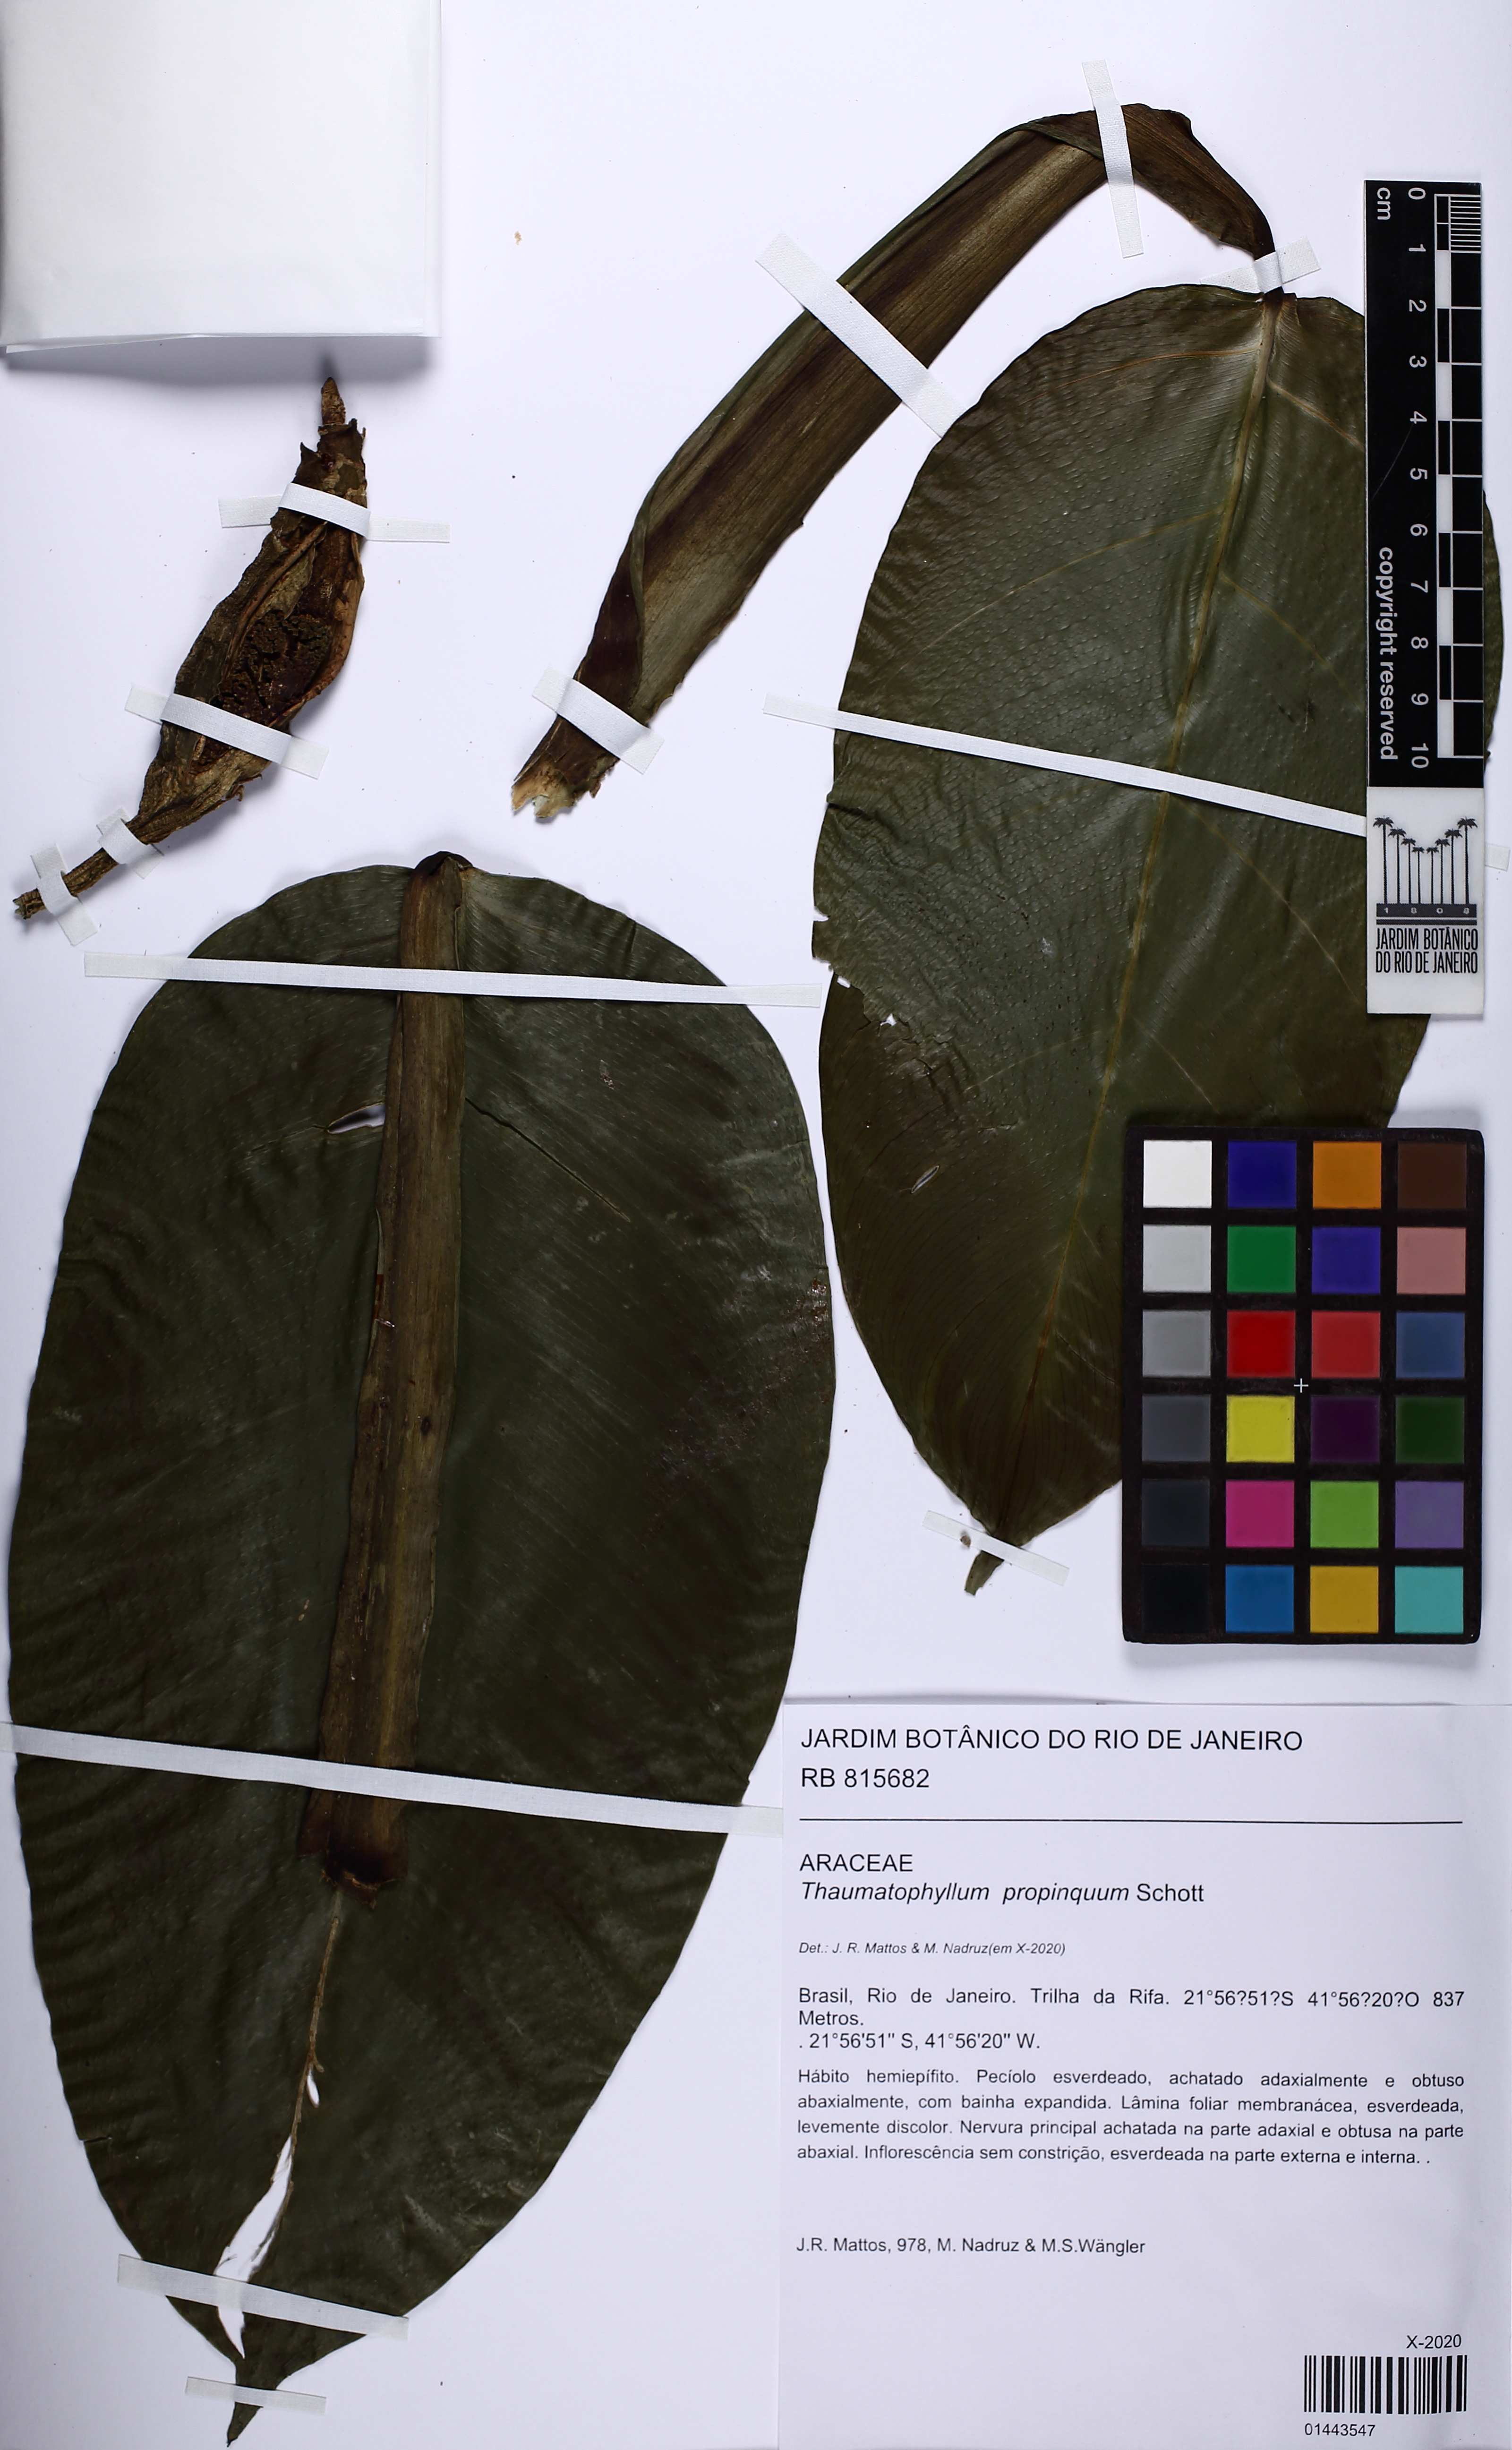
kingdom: Plantae
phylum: Tracheophyta
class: Liliopsida
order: Alismatales
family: Araceae
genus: Philodendron
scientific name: Philodendron propinquum
